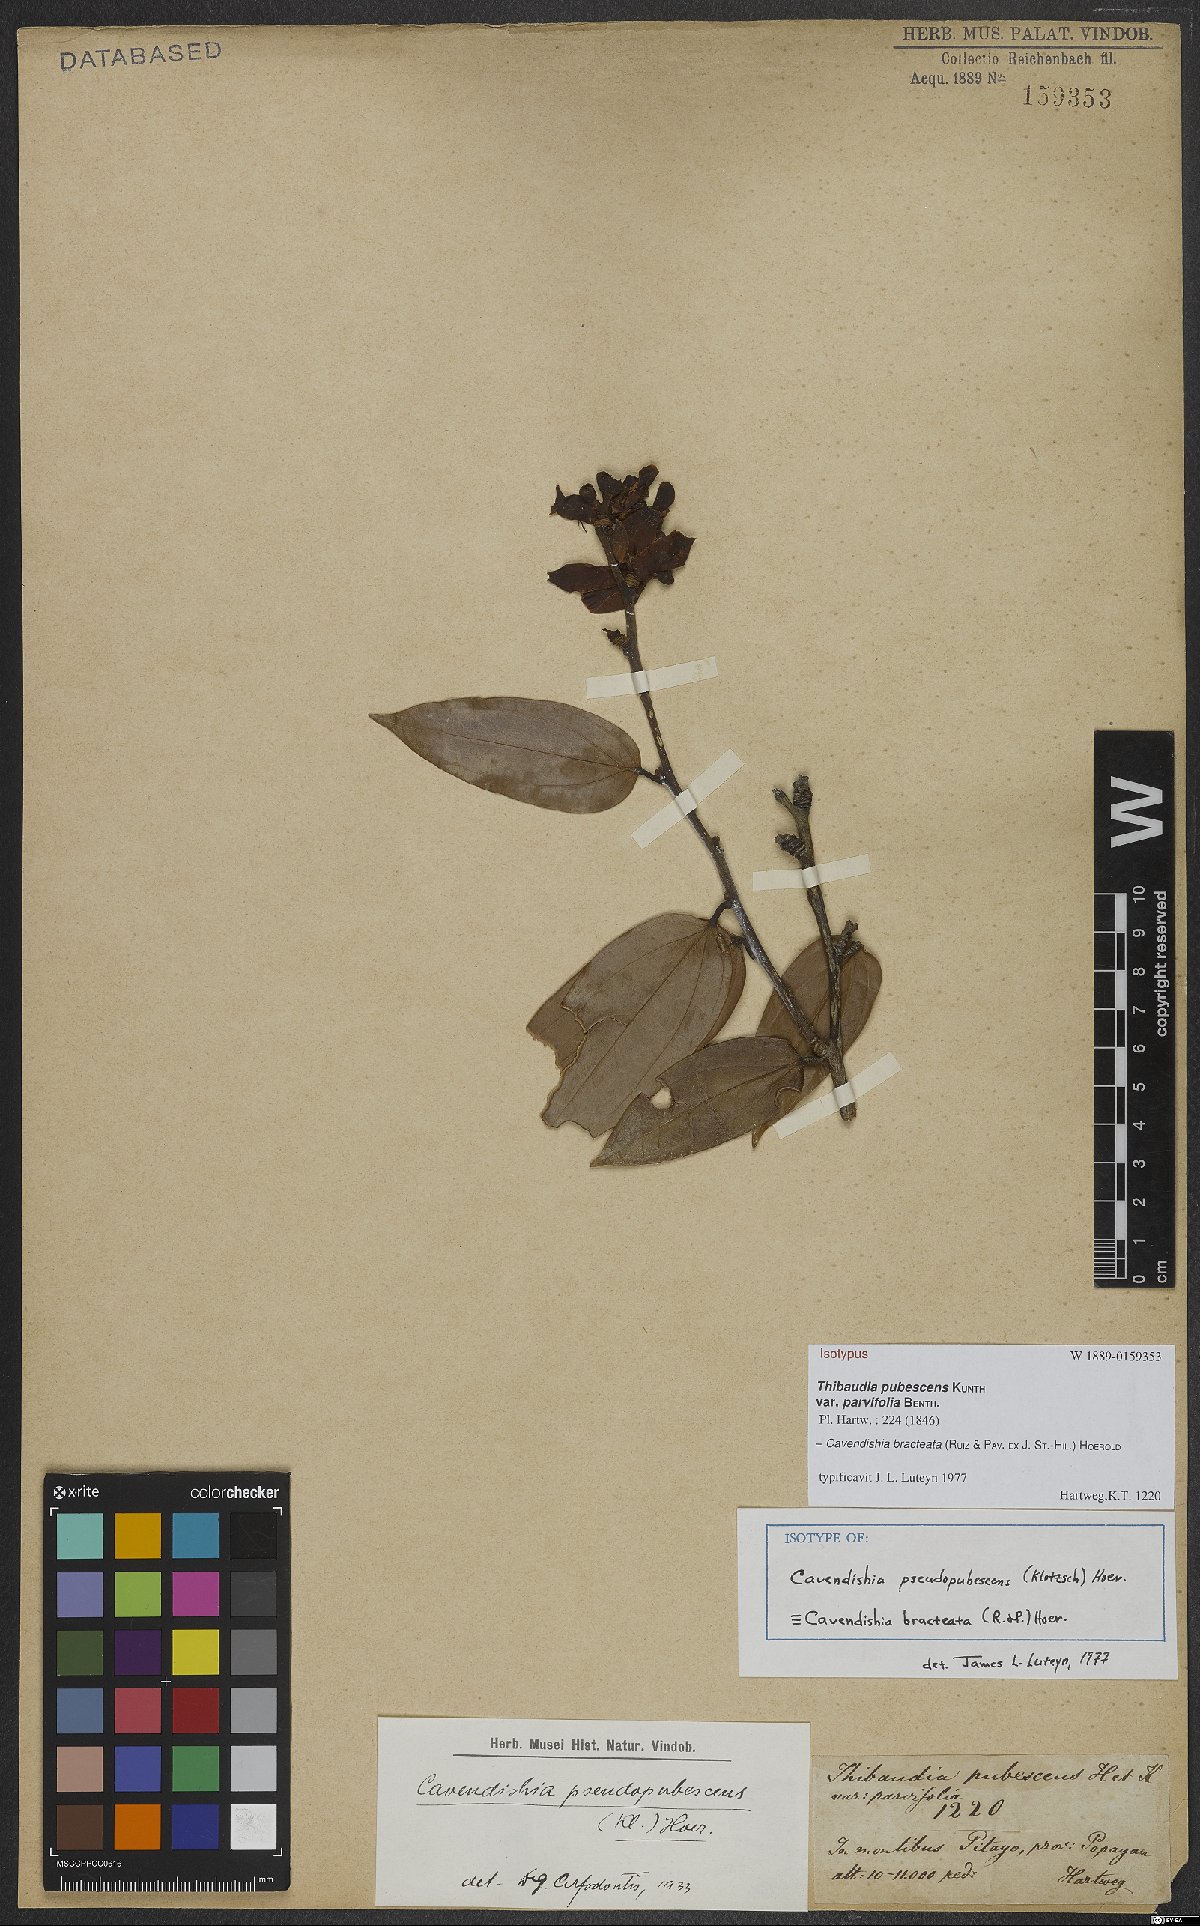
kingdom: Plantae
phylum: Tracheophyta
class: Magnoliopsida
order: Ericales
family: Ericaceae
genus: Cavendishia
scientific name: Cavendishia bracteata
